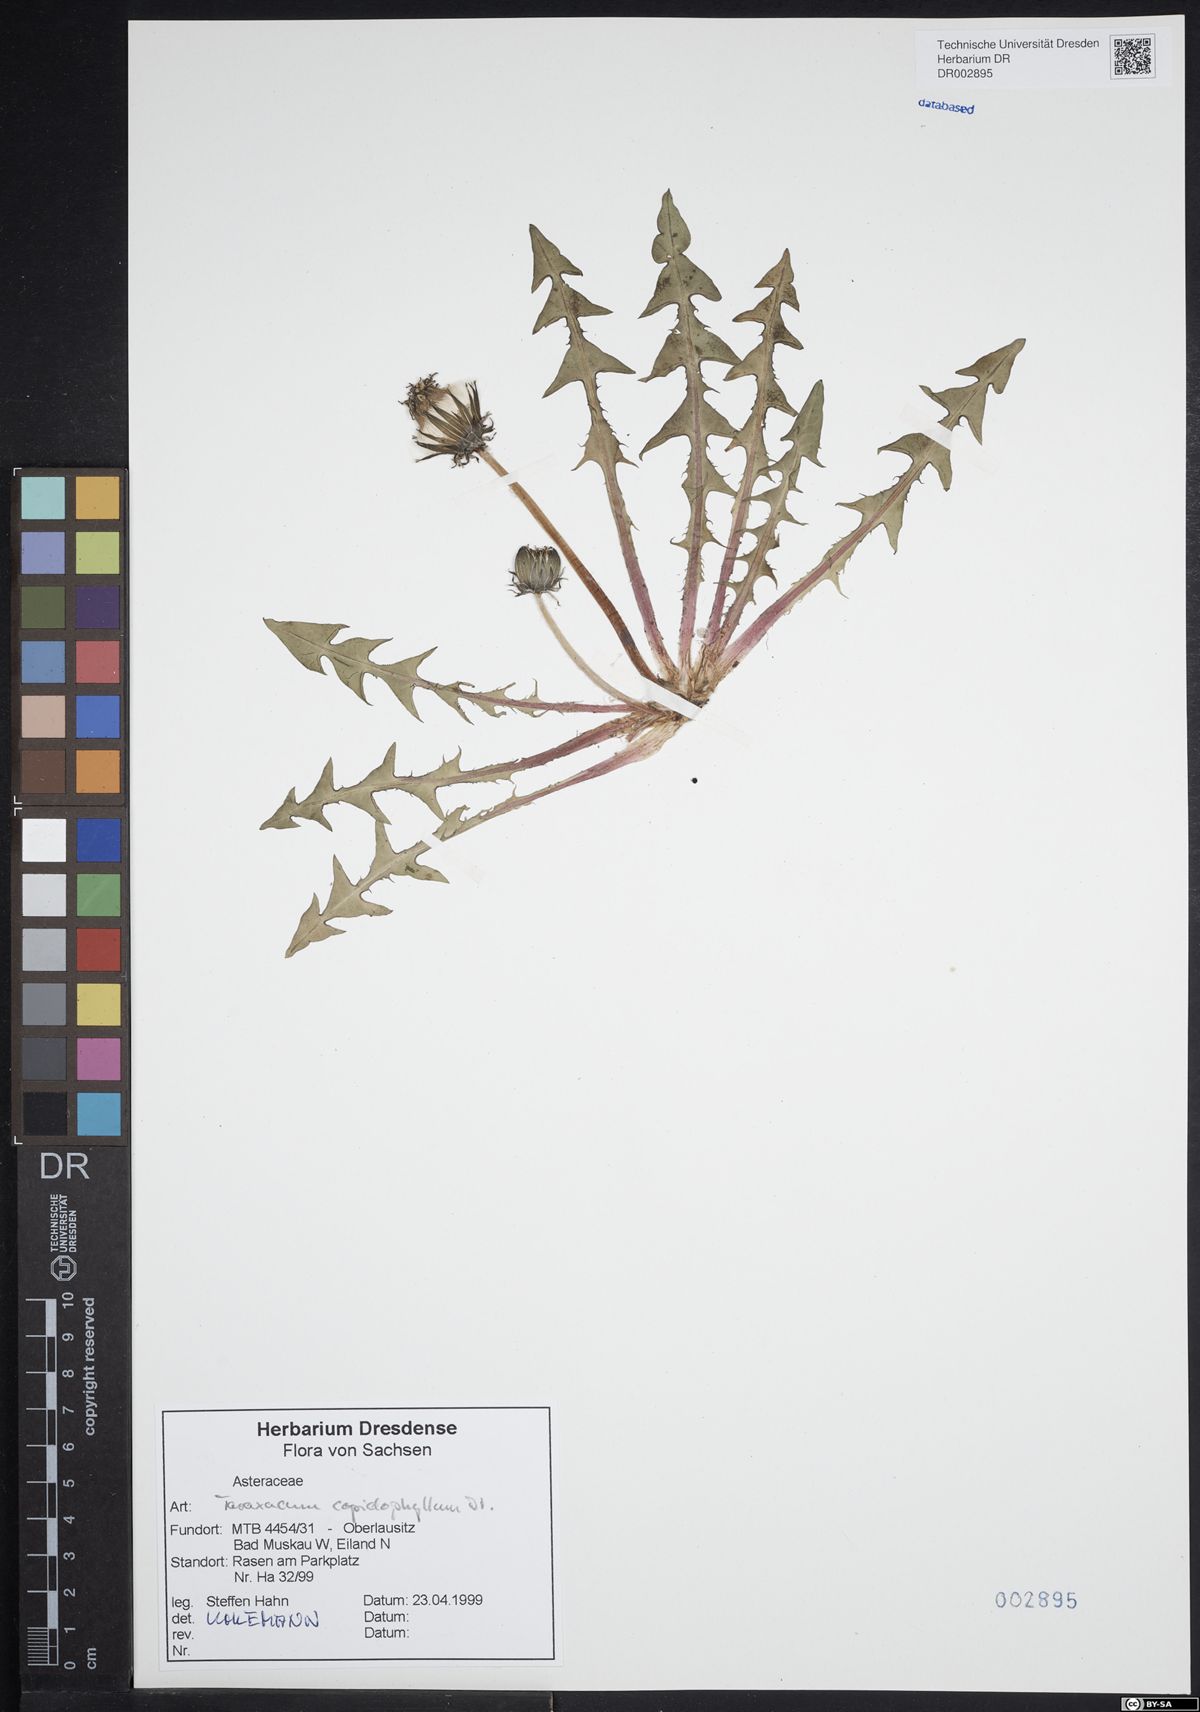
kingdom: Plantae
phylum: Tracheophyta
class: Magnoliopsida
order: Asterales
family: Asteraceae
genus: Taraxacum
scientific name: Taraxacum copidophyllum
